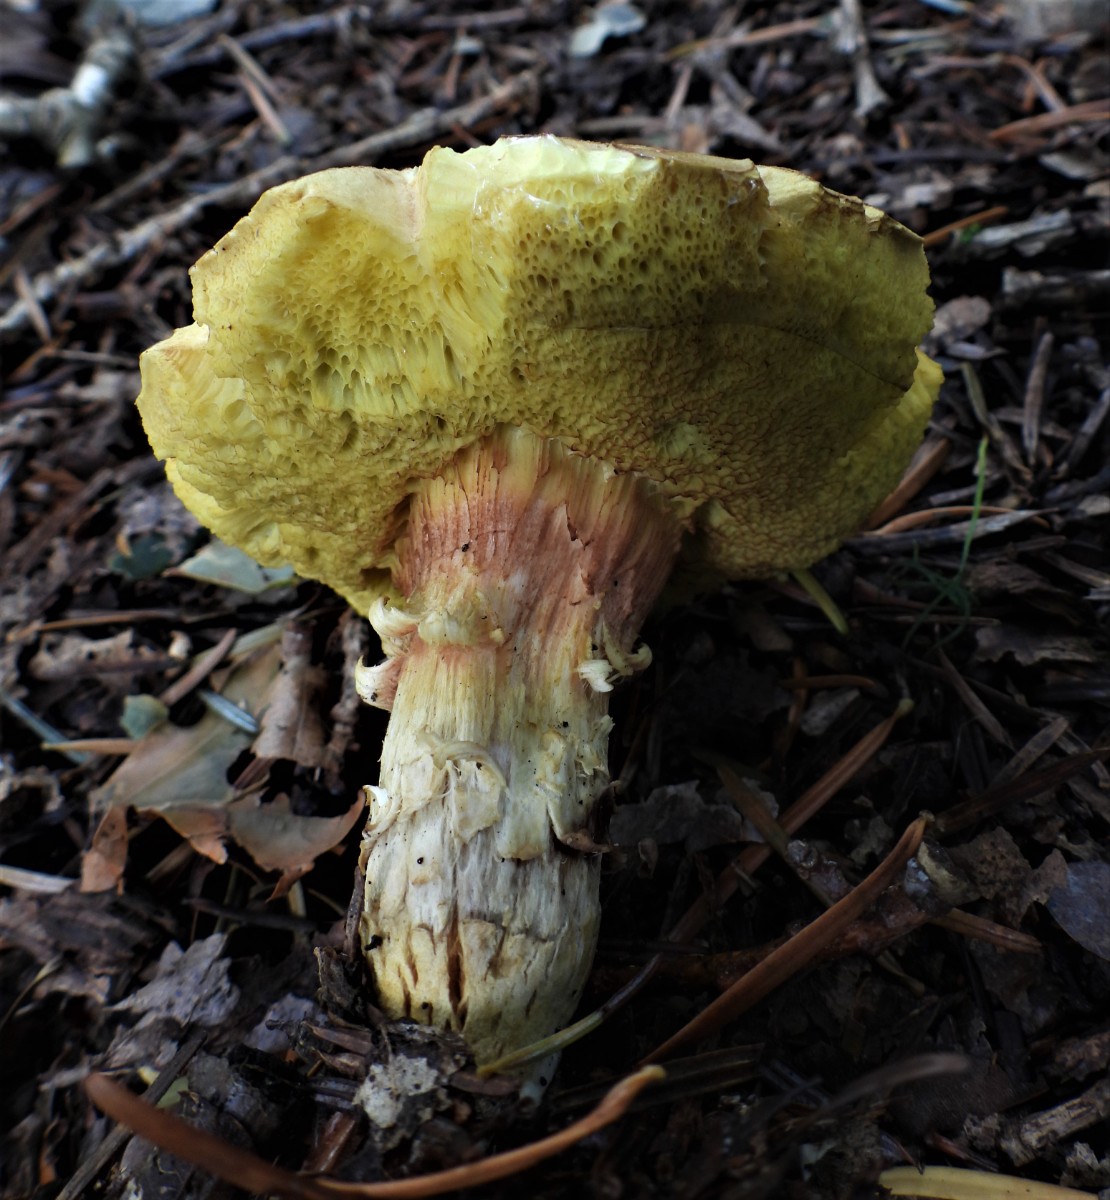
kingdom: Fungi
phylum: Basidiomycota
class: Agaricomycetes
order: Boletales
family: Boletaceae
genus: Xerocomus
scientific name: Xerocomus subtomentosus
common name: filtet rørhat
